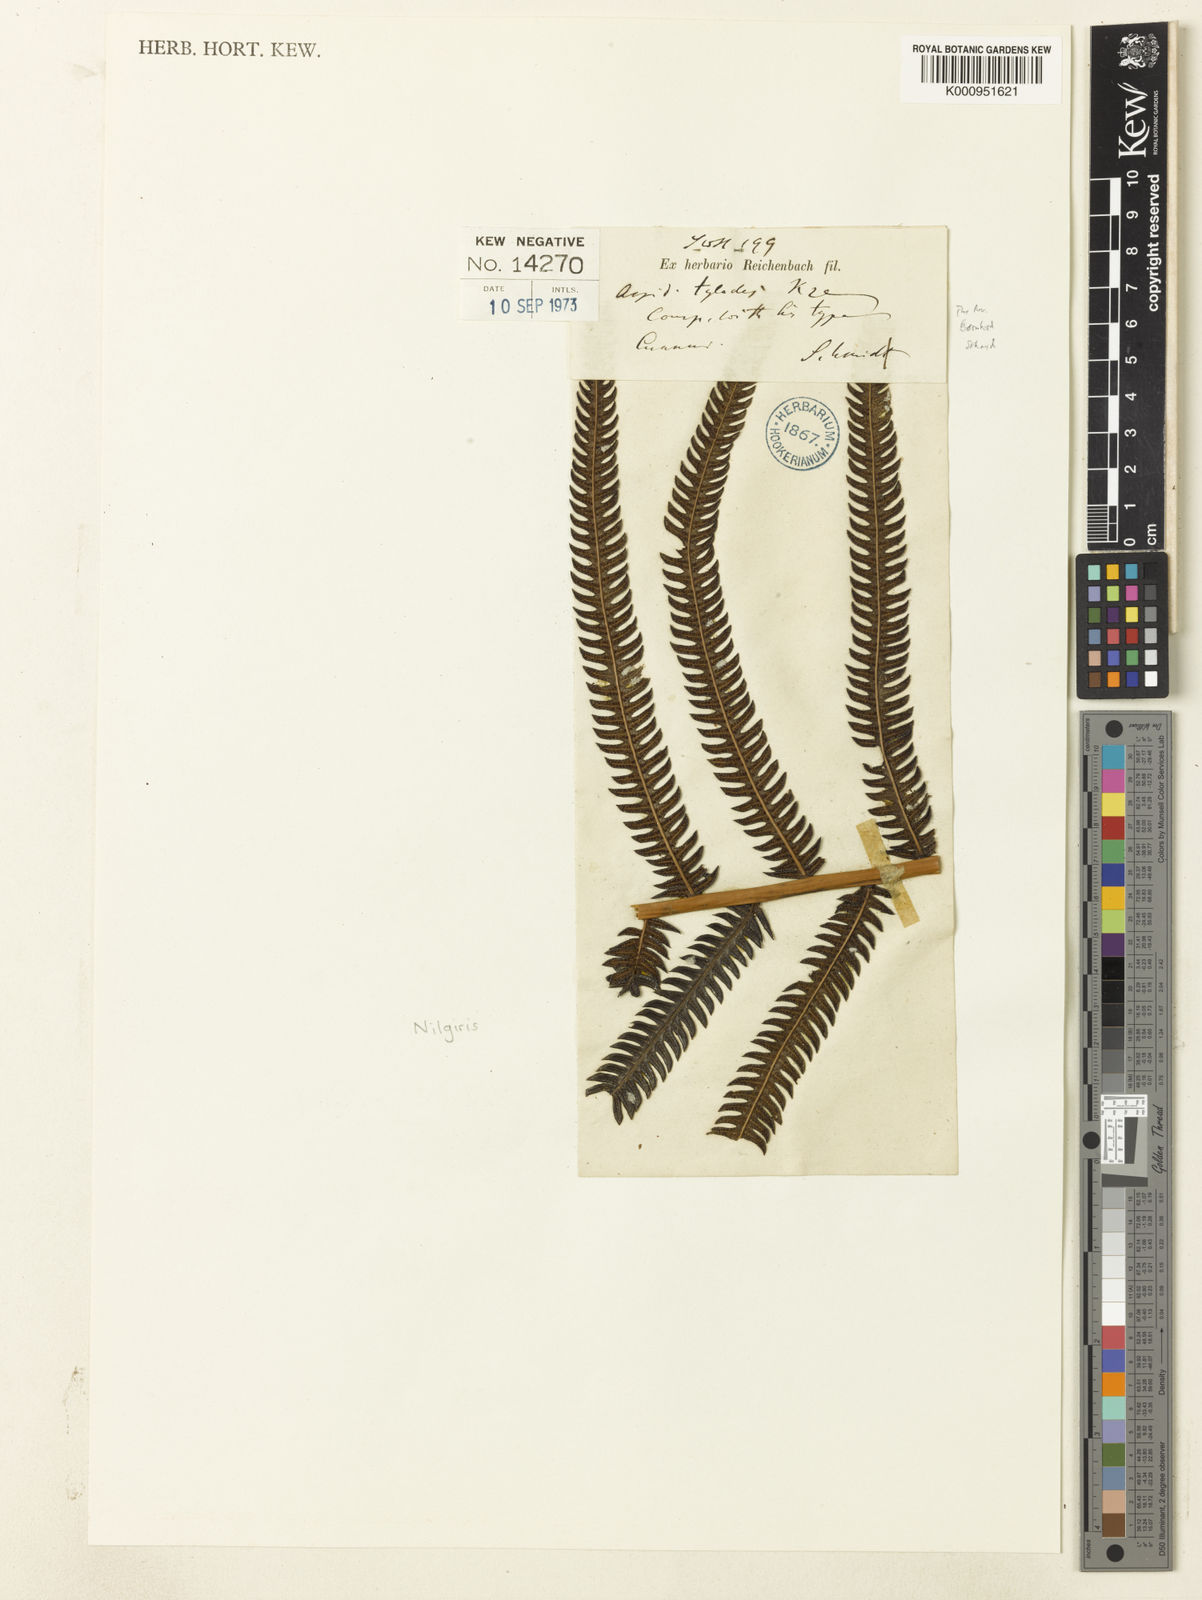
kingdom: Plantae
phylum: Tracheophyta
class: Polypodiopsida
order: Polypodiales
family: Thelypteridaceae
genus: Pseudocyclosorus
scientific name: Pseudocyclosorus tylodes
